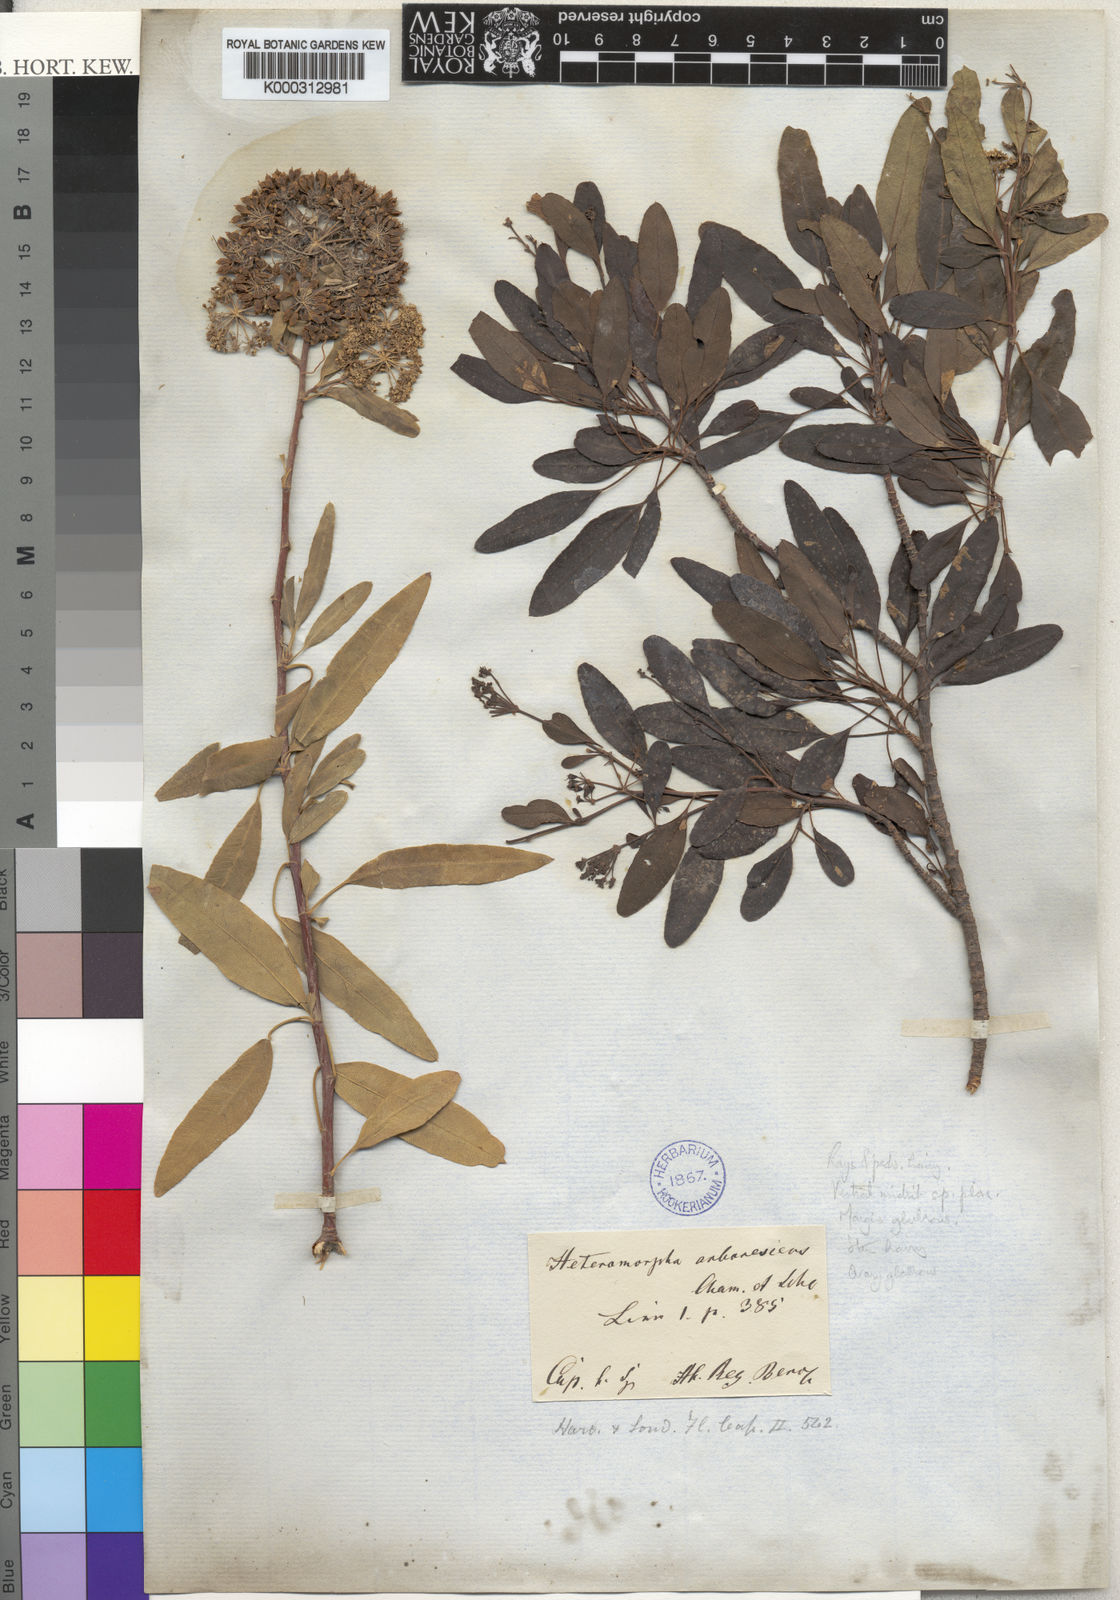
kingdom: Plantae
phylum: Tracheophyta
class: Magnoliopsida
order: Apiales
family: Apiaceae
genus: Heteromorpha
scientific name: Heteromorpha arborescens
